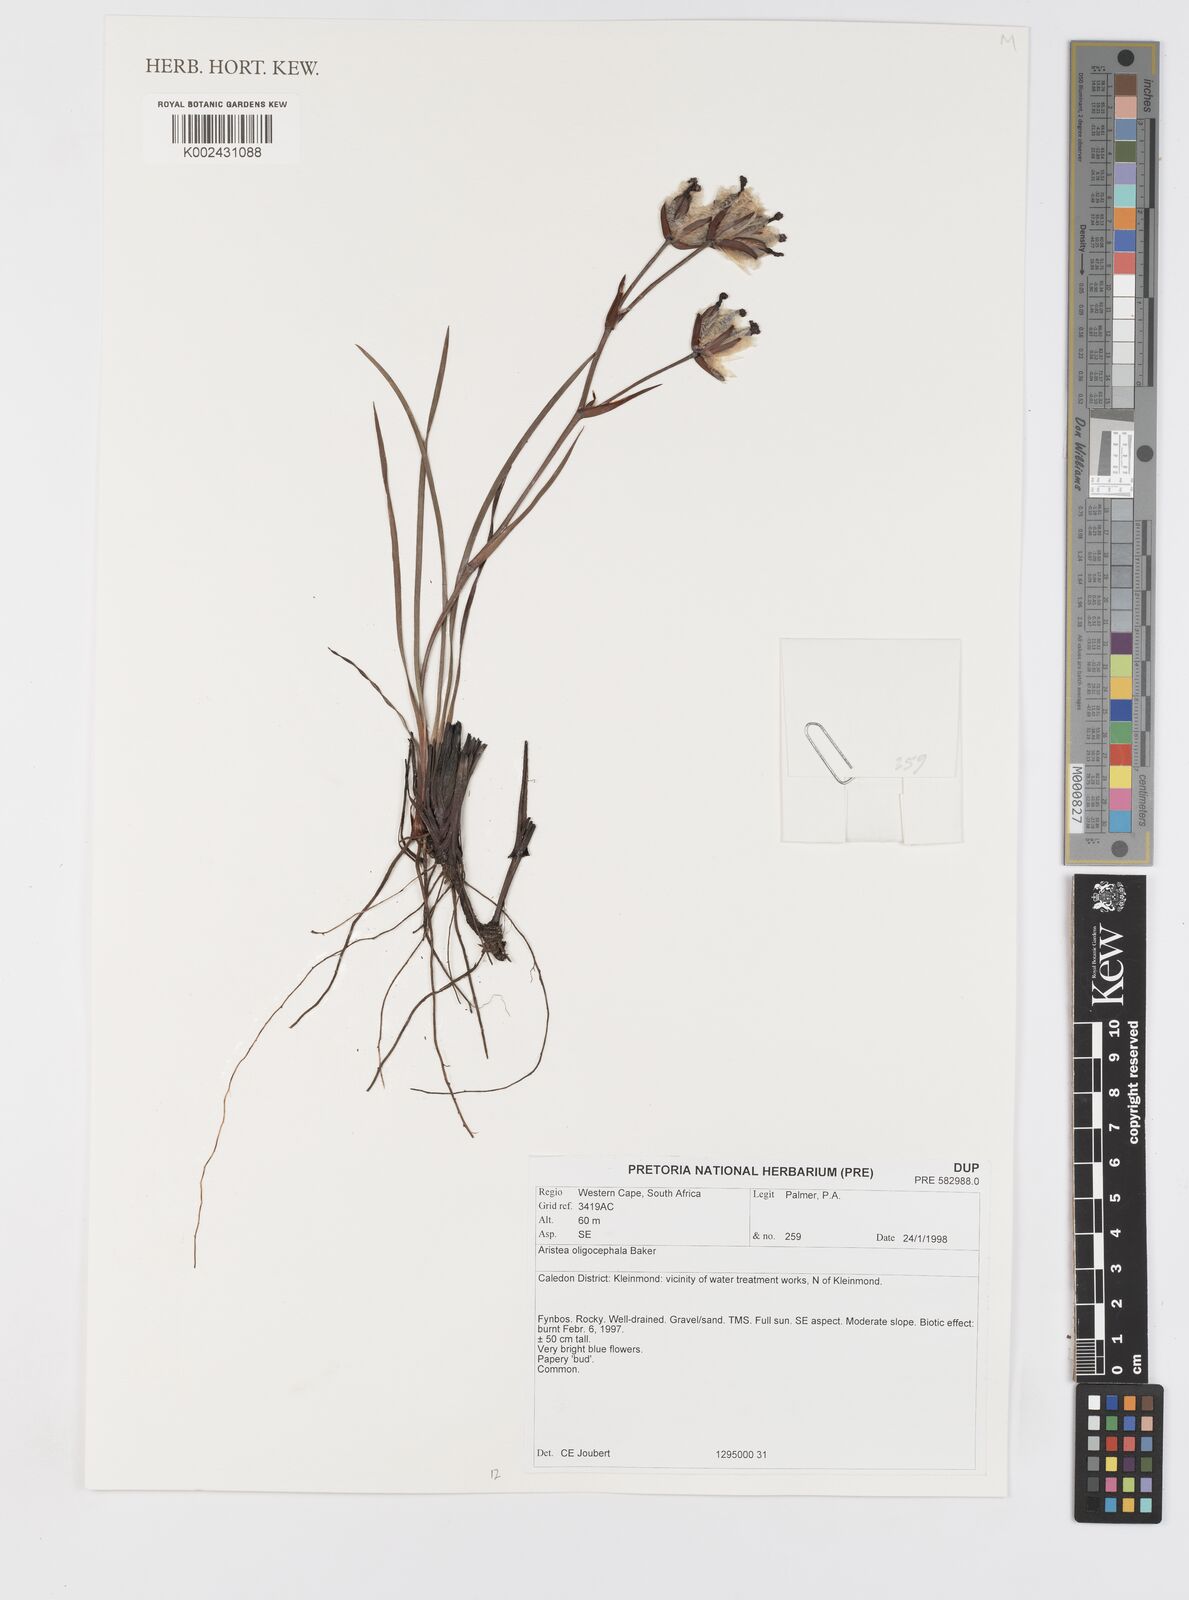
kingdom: Plantae
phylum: Tracheophyta
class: Liliopsida
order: Asparagales
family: Iridaceae
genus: Aristea
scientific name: Aristea oligocephala
